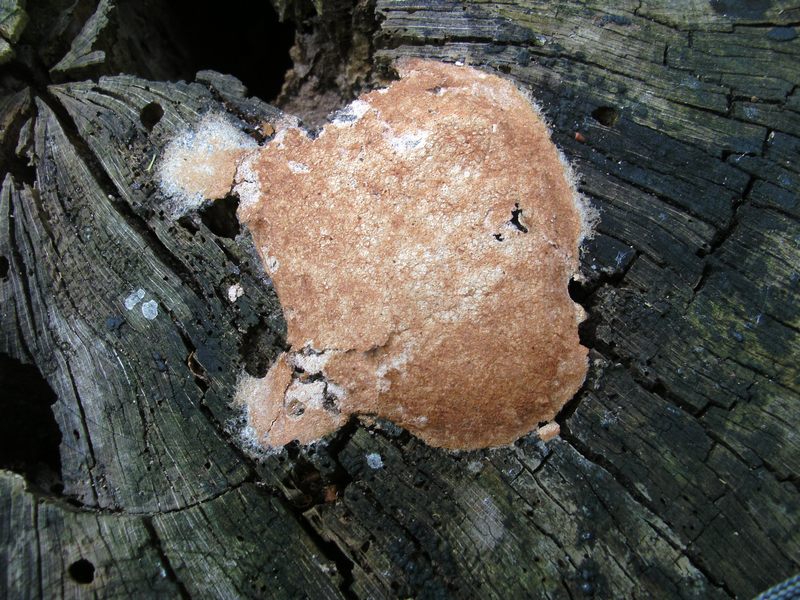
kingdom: Protozoa
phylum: Mycetozoa
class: Myxomycetes
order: Physarales
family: Physaraceae
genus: Fuligo
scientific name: Fuligo septica
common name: gul troldsmør
